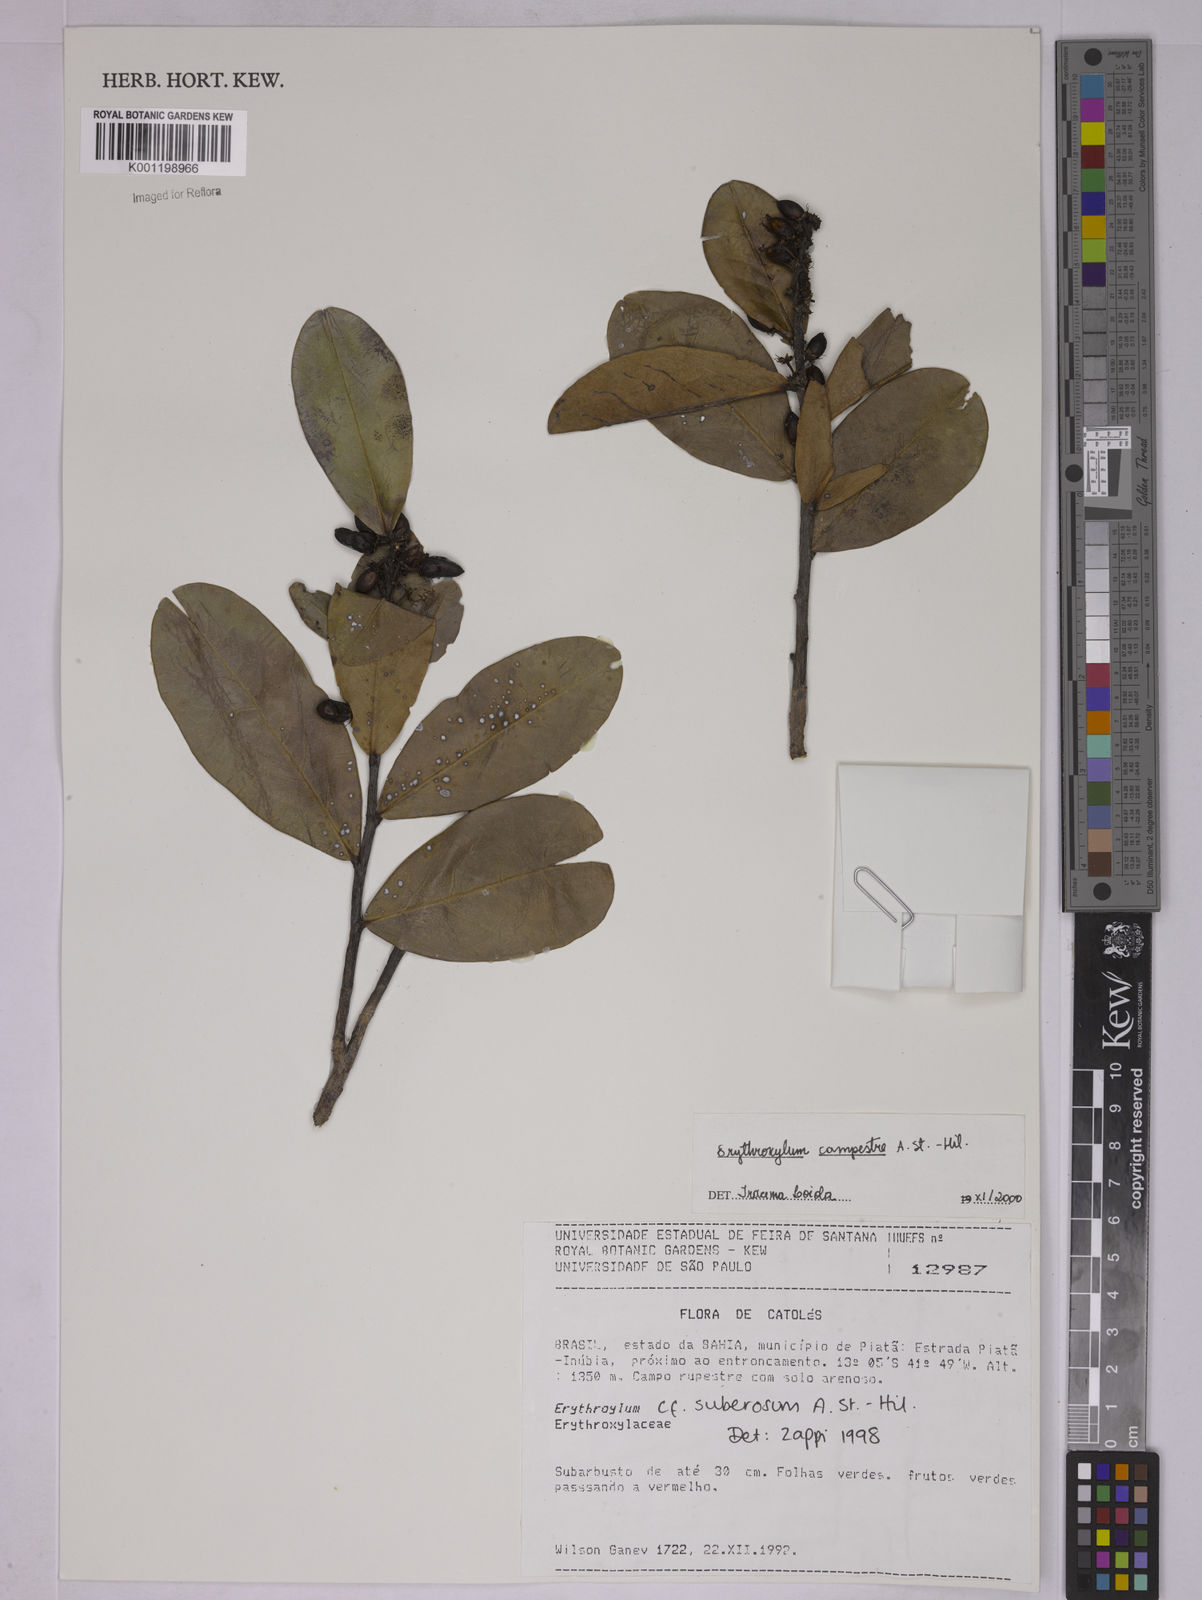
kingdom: Plantae
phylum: Tracheophyta
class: Magnoliopsida
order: Malpighiales
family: Erythroxylaceae
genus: Erythroxylum
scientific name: Erythroxylum campestre
